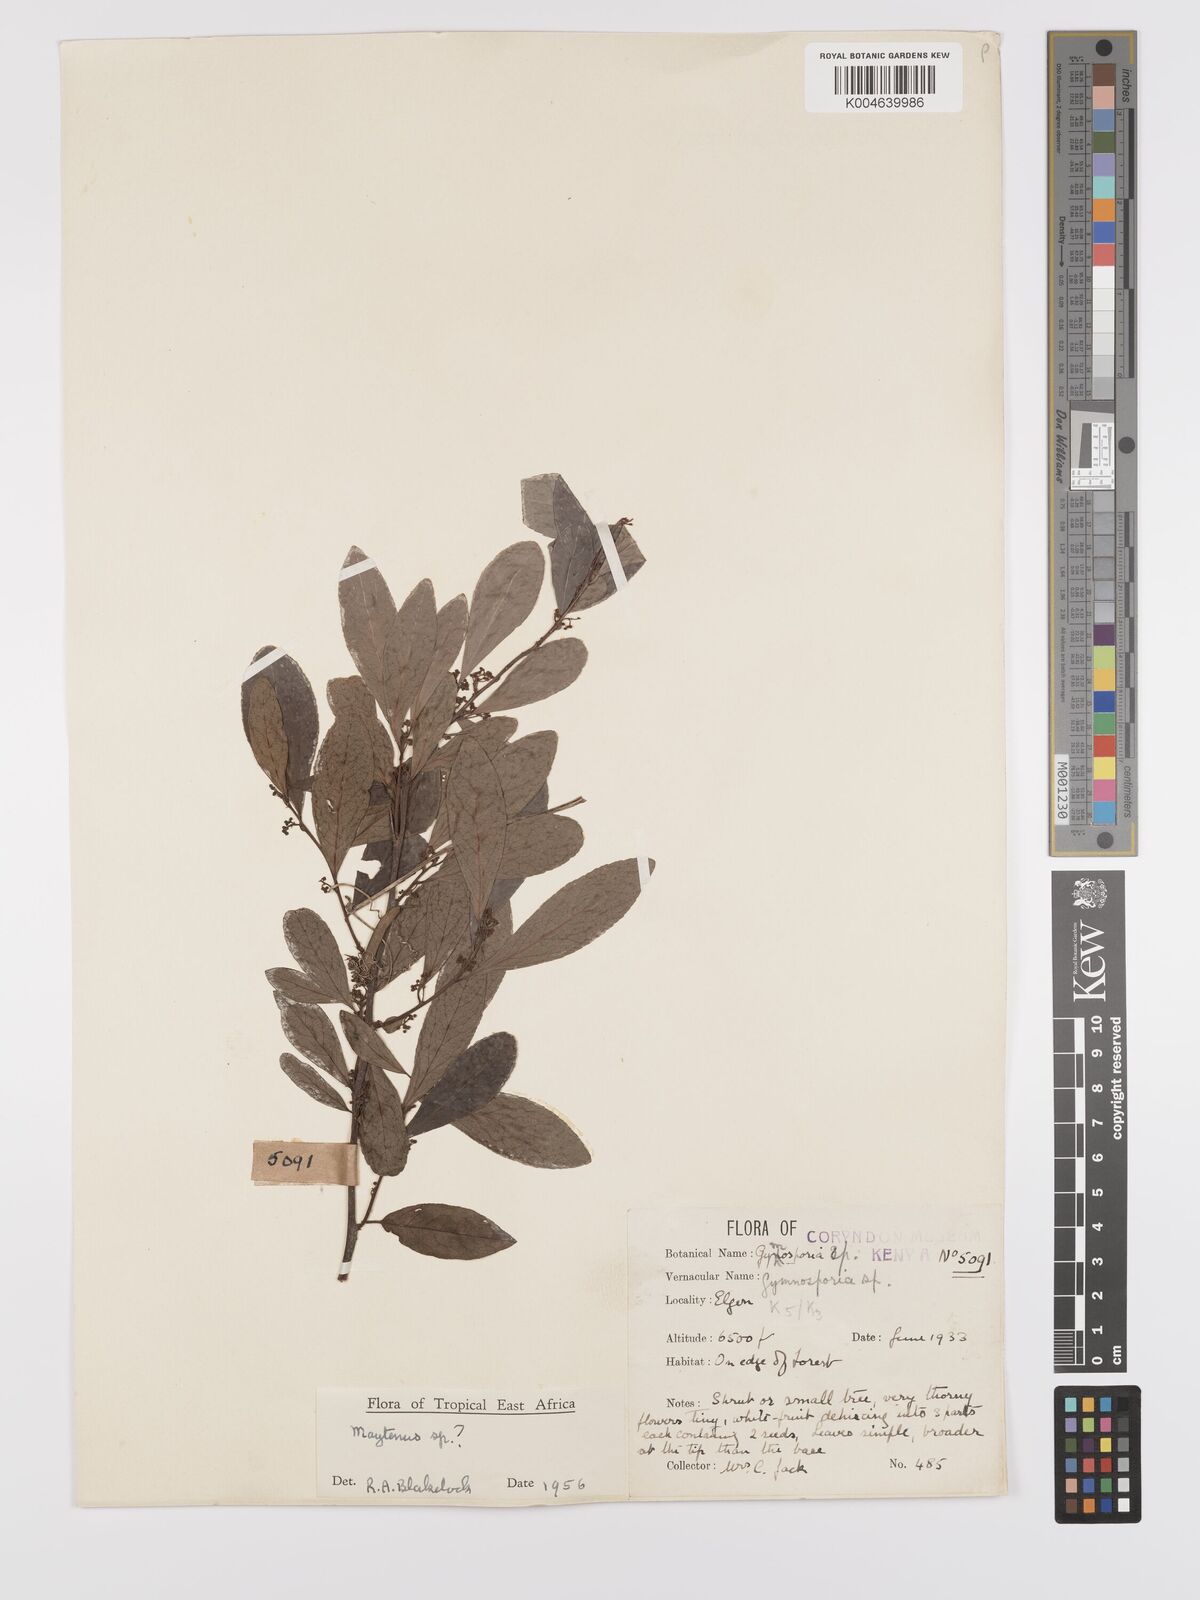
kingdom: Plantae
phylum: Tracheophyta
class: Magnoliopsida
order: Celastrales
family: Celastraceae
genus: Gymnosporia
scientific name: Gymnosporia arbutifolia
